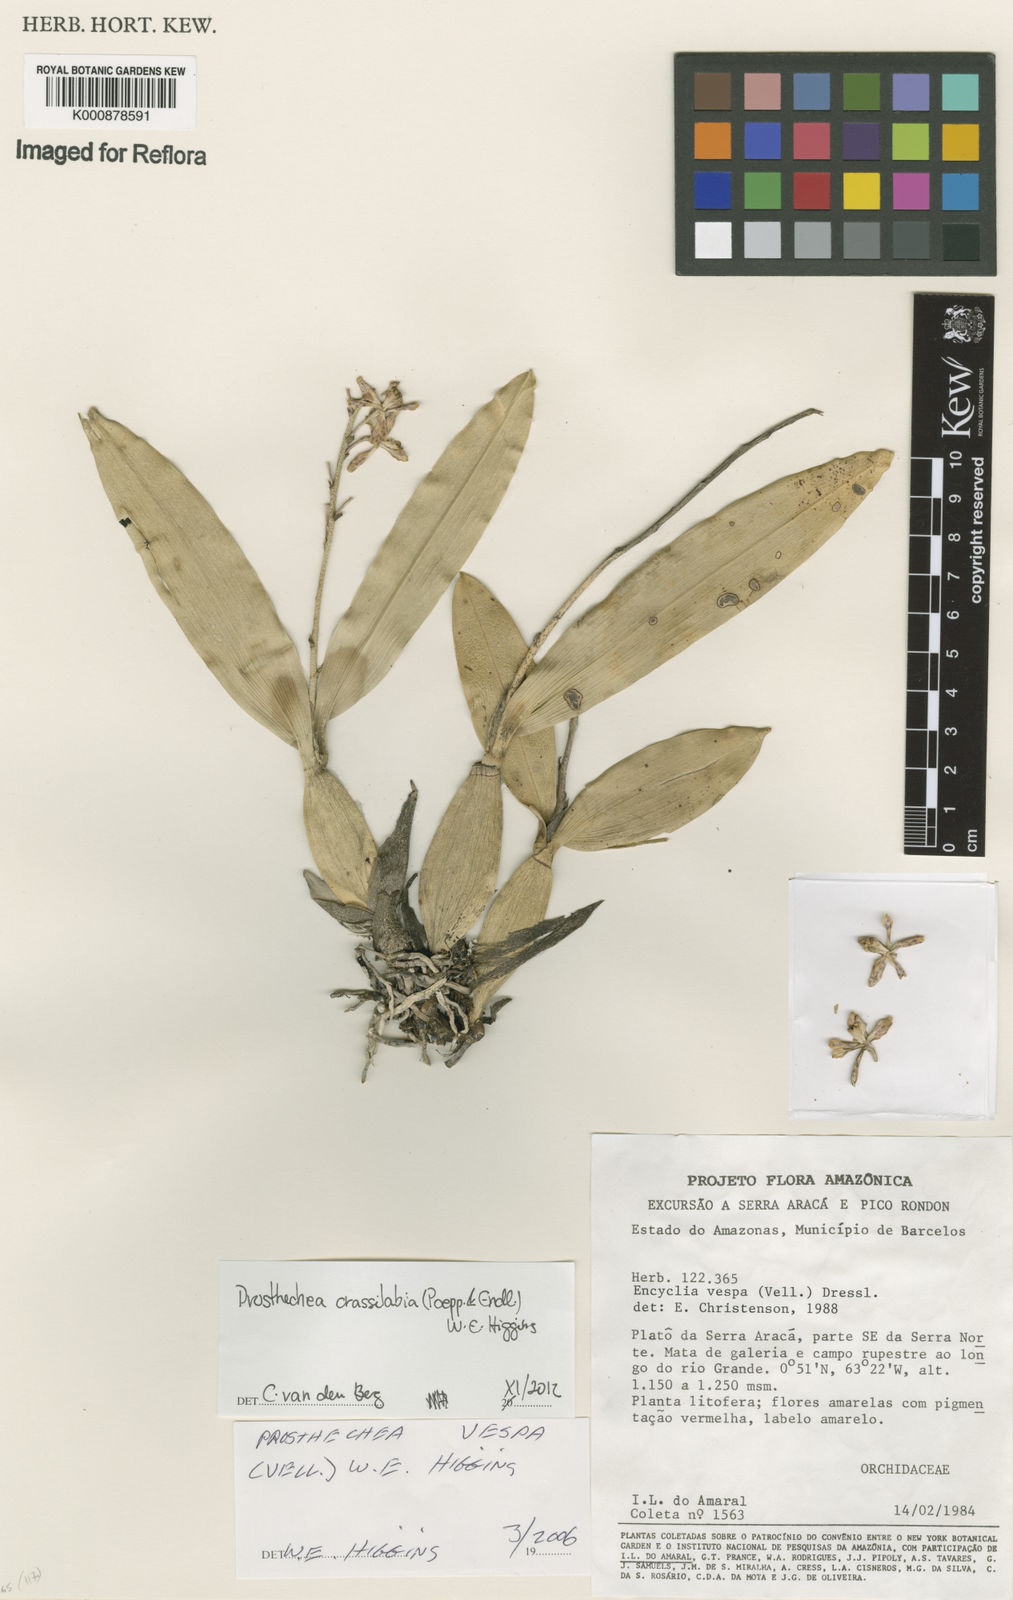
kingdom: Plantae
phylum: Tracheophyta
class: Liliopsida
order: Asparagales
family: Orchidaceae
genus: Prosthechea
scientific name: Prosthechea
